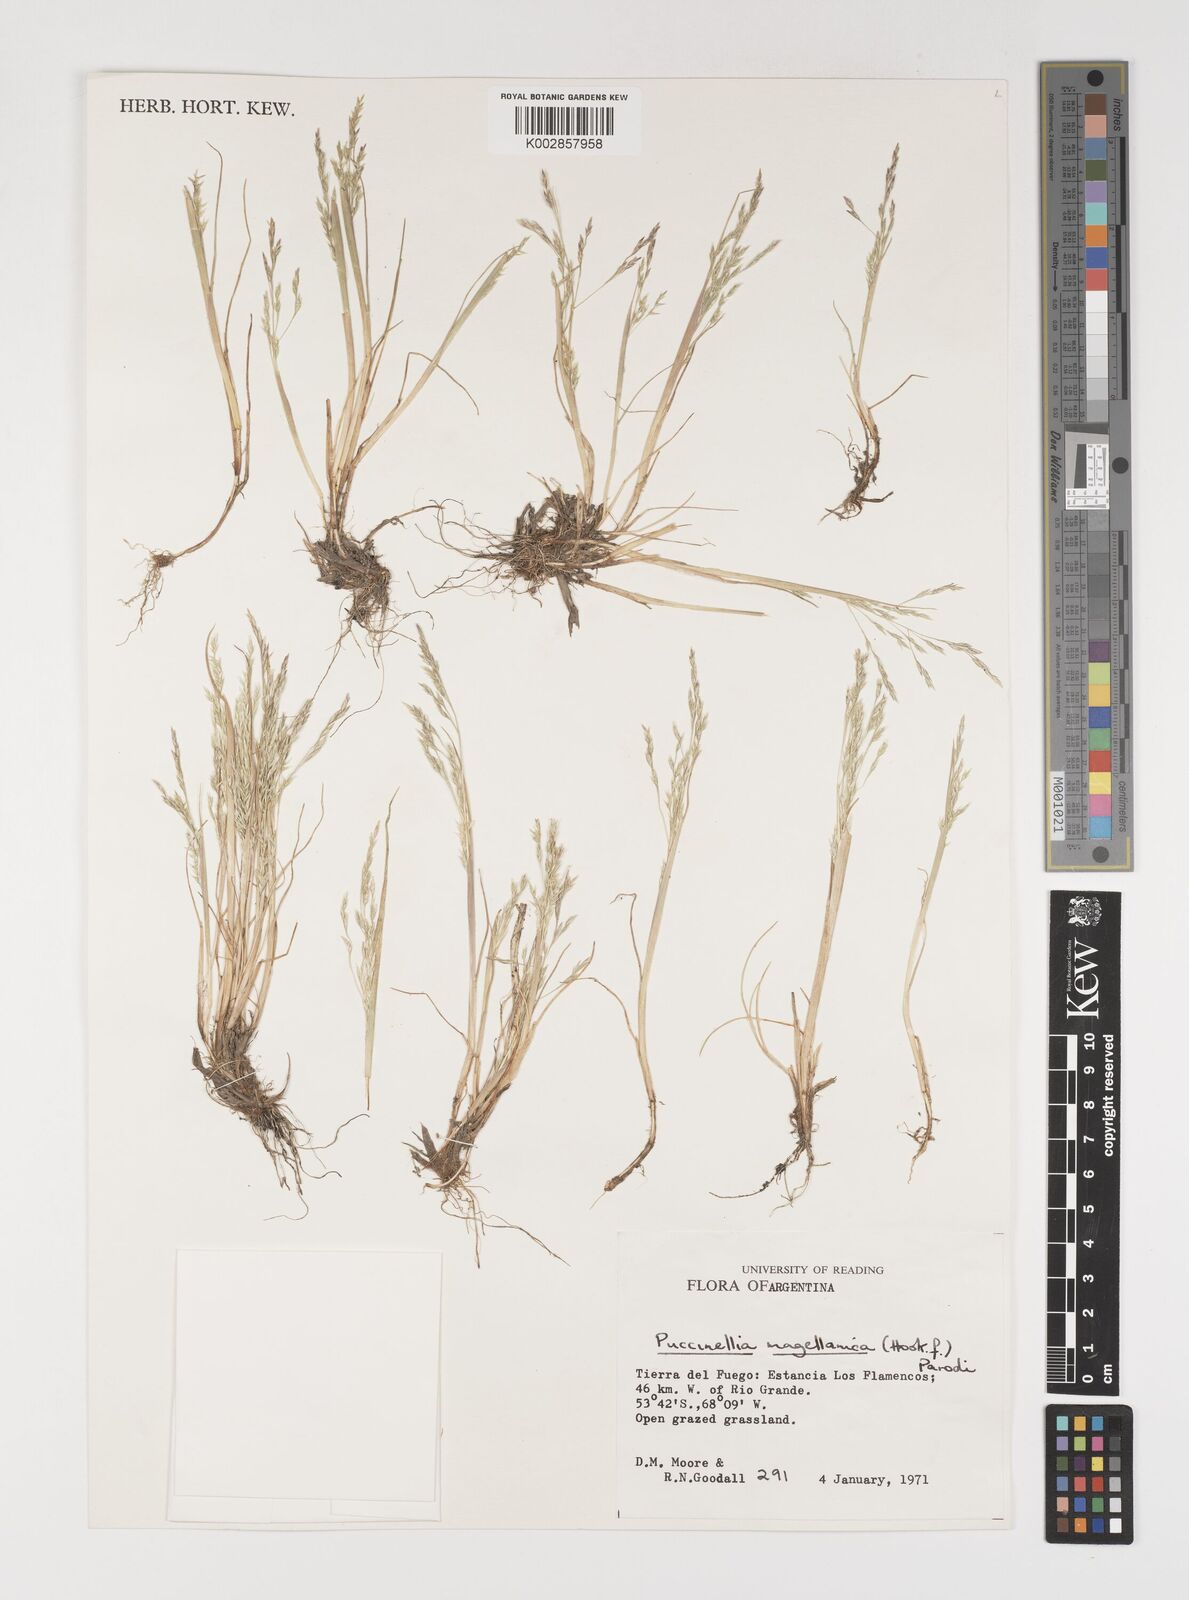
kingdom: Plantae
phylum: Tracheophyta
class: Liliopsida
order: Poales
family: Poaceae
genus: Puccinellia
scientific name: Puccinellia magellanica
